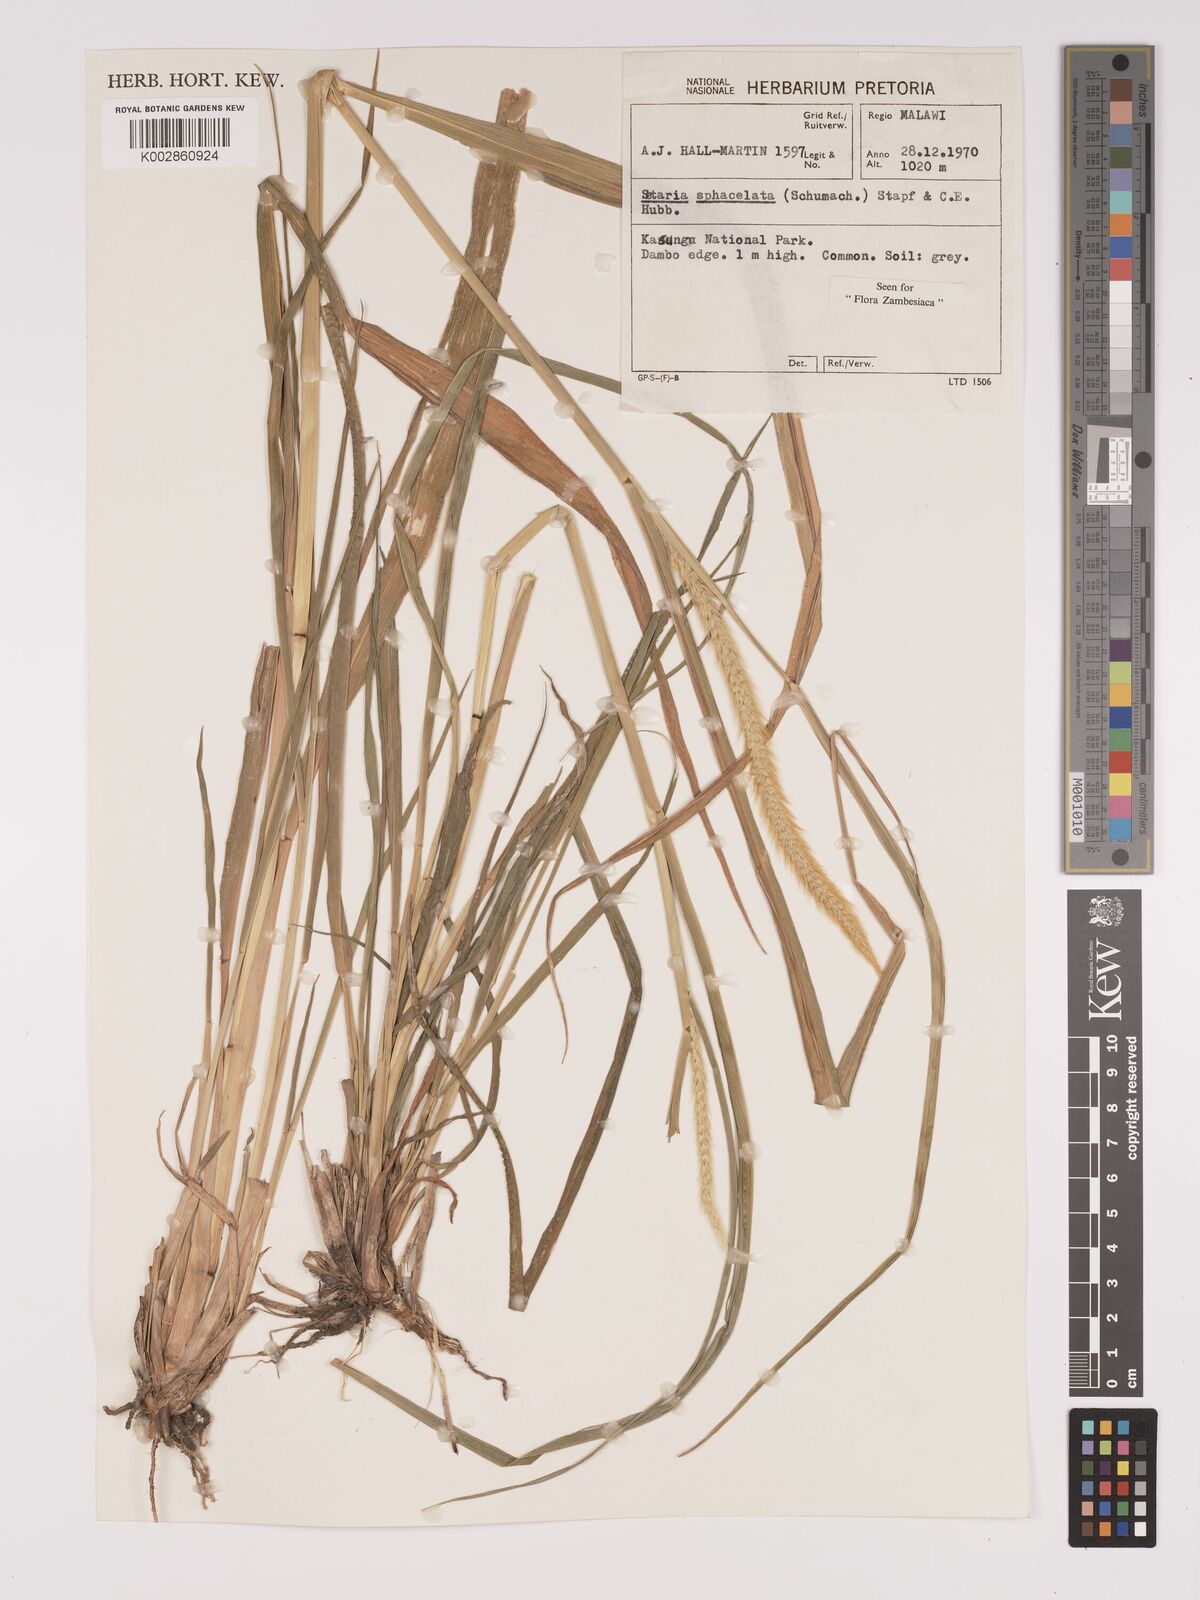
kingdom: Plantae
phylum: Tracheophyta
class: Liliopsida
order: Poales
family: Poaceae
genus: Setaria
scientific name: Setaria sphacelata
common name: African bristlegrass
